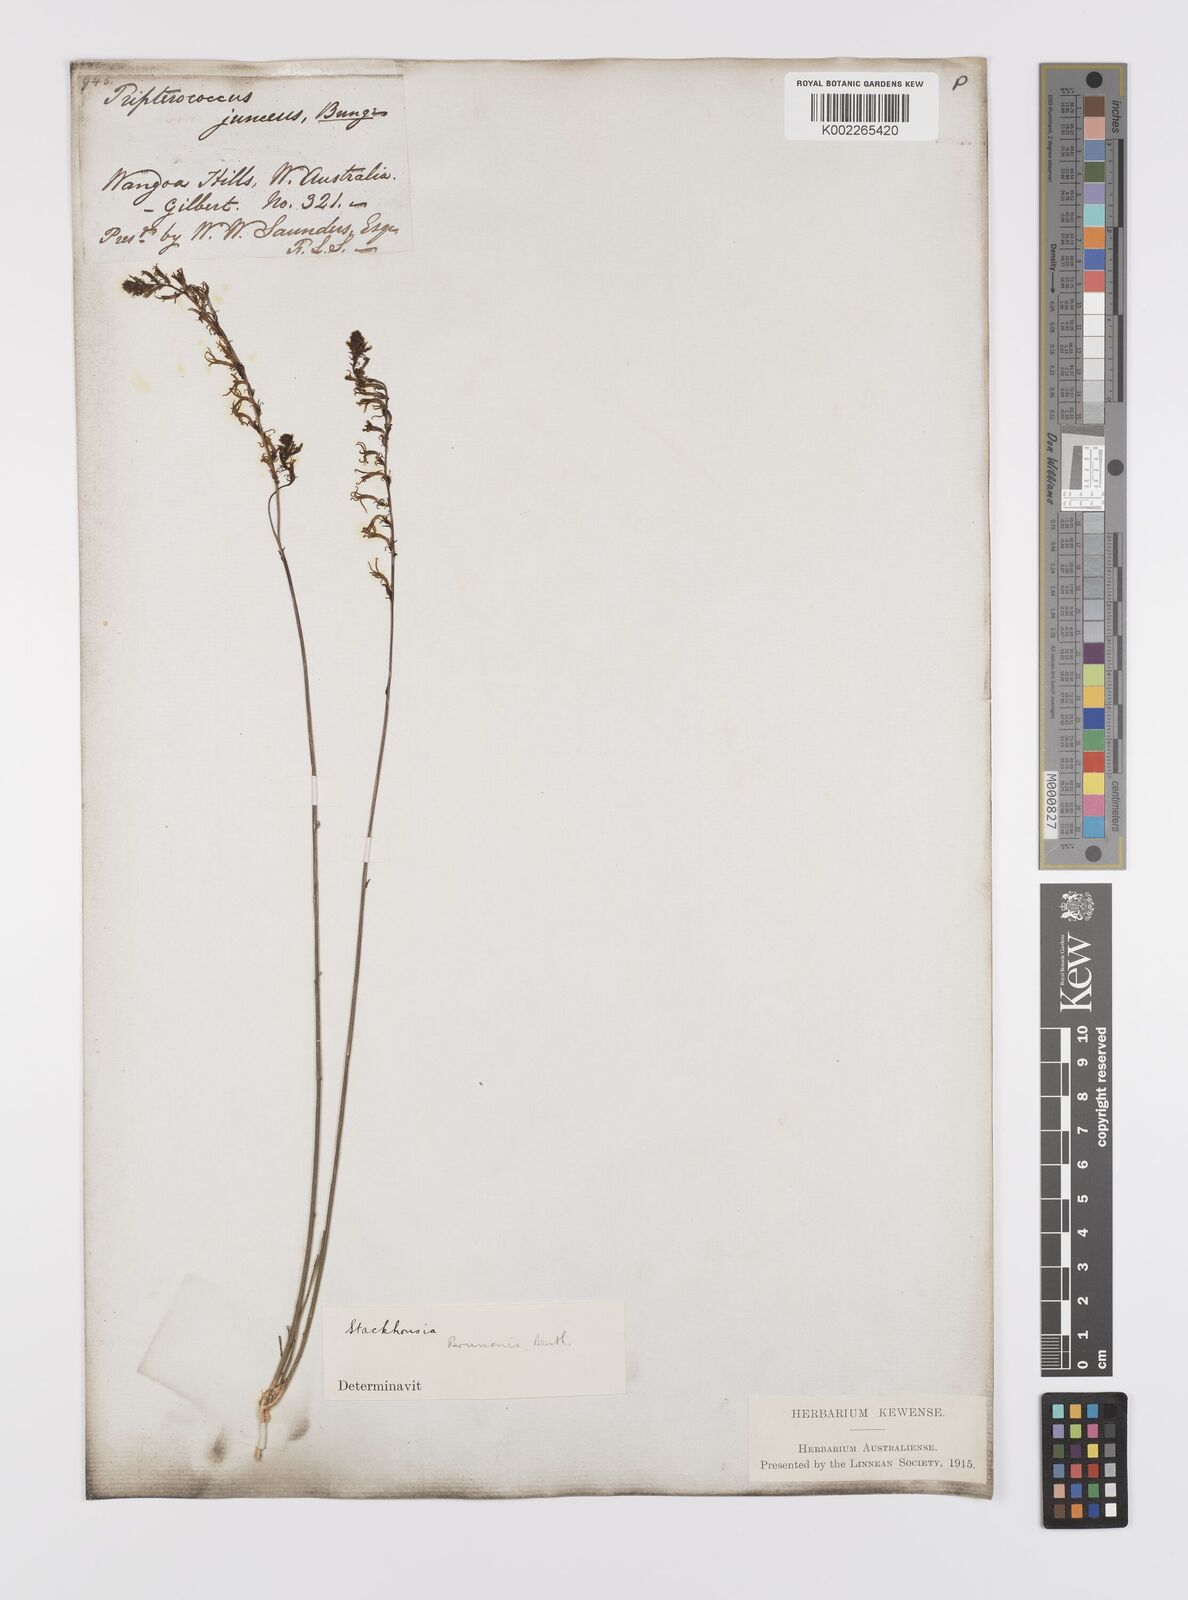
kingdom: Plantae
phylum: Tracheophyta
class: Magnoliopsida
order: Celastrales
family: Celastraceae
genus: Tripterococcus
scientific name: Tripterococcus brunonis
